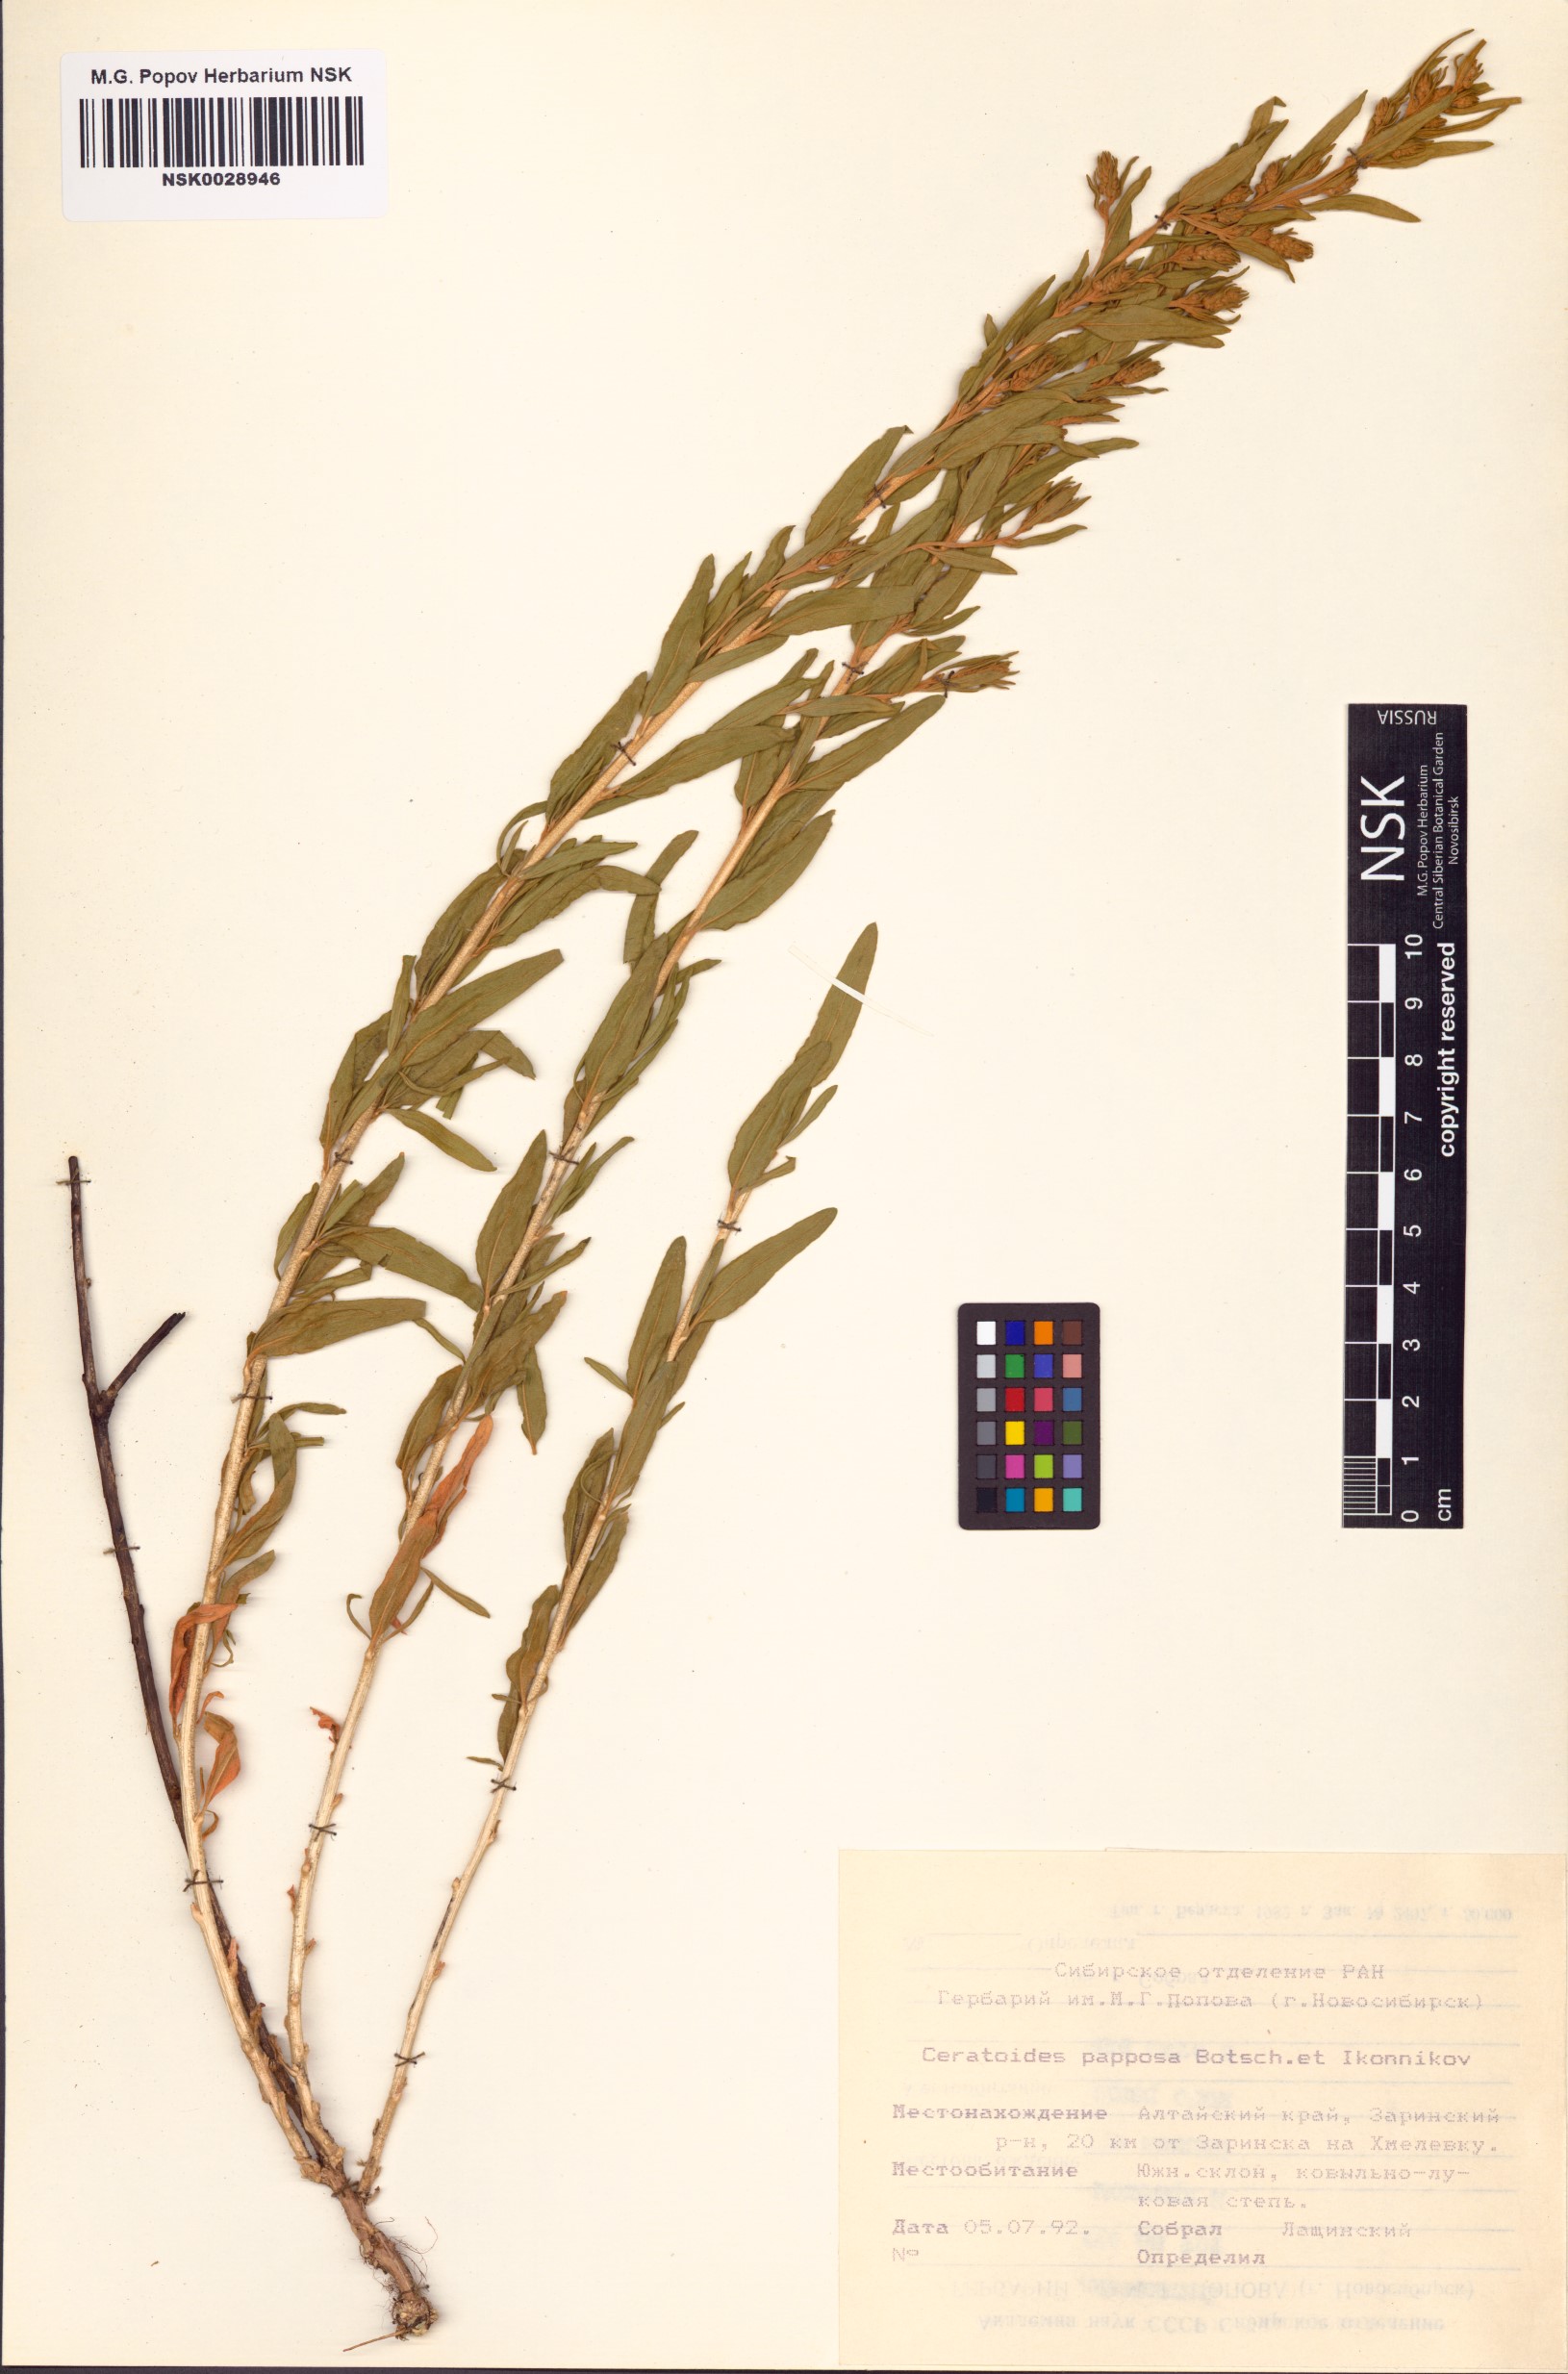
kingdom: Plantae
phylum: Tracheophyta
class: Magnoliopsida
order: Caryophyllales
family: Amaranthaceae
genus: Krascheninnikovia
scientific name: Krascheninnikovia ceratoides
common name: Pamirian winterfat
